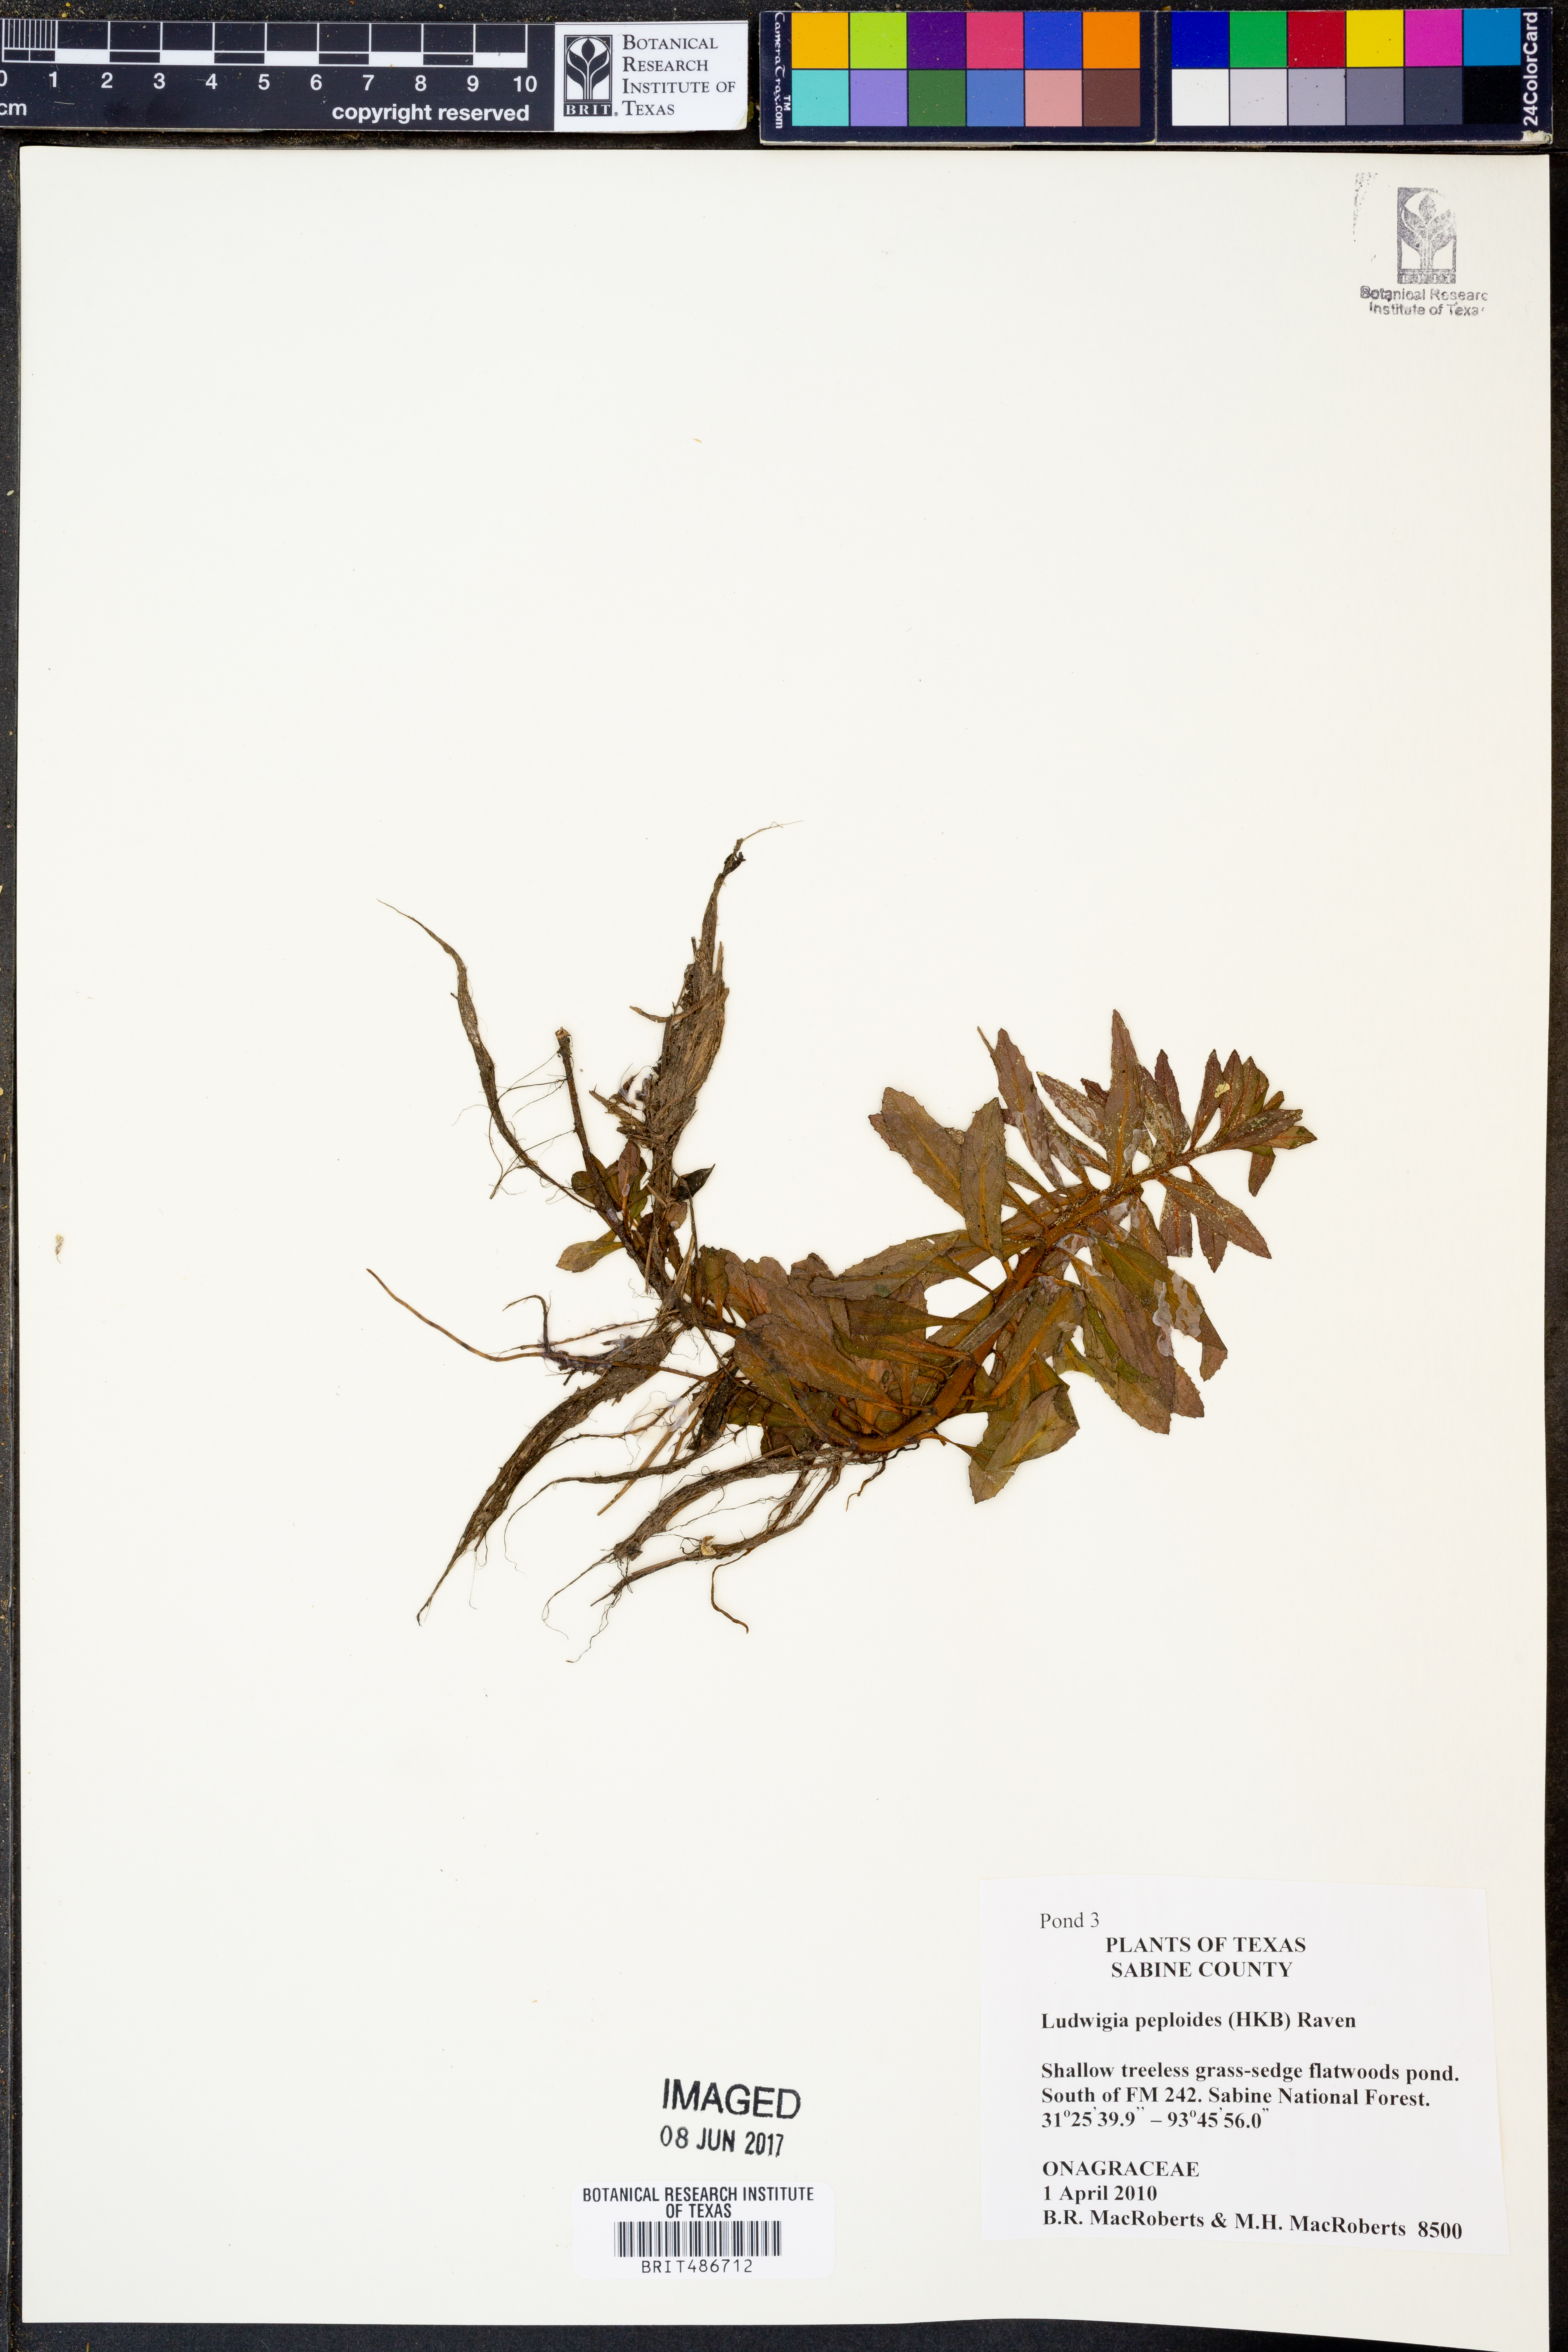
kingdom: Plantae
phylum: Tracheophyta
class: Magnoliopsida
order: Myrtales
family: Onagraceae
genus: Ludwigia
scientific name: Ludwigia peploides
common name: Floating primrose-willow
